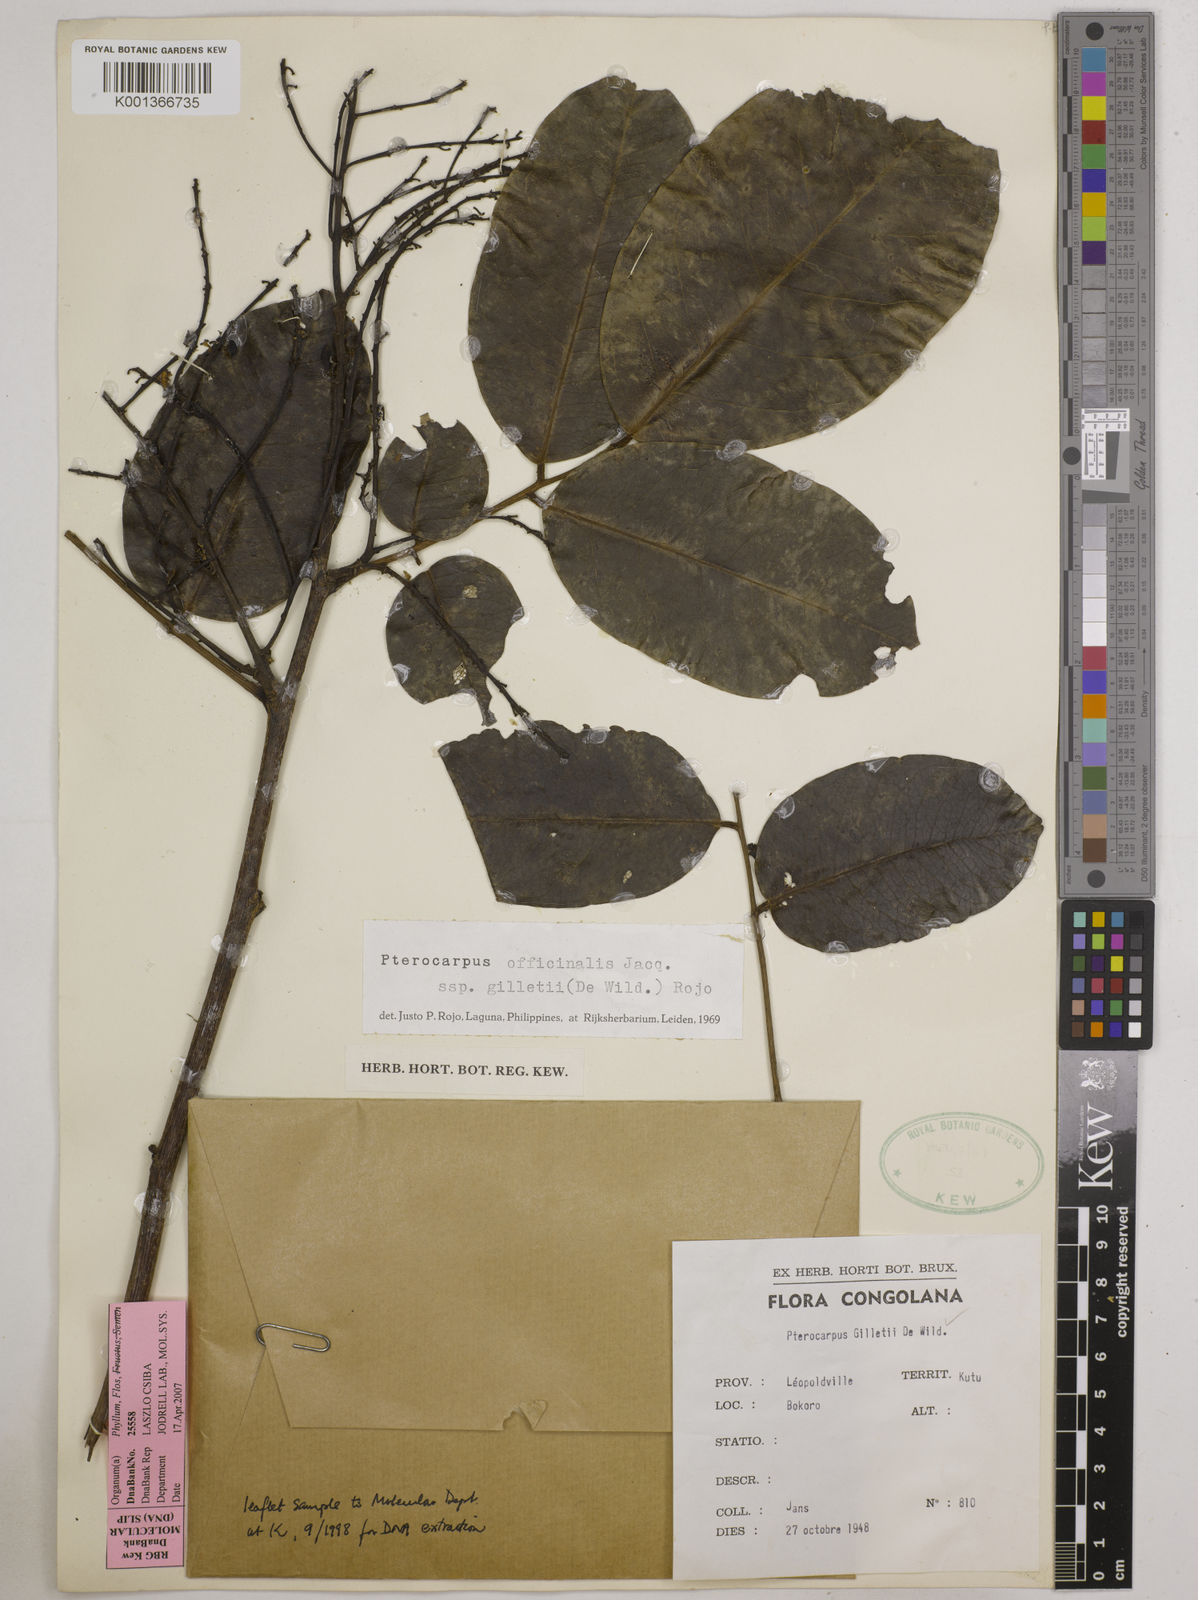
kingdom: Plantae
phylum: Tracheophyta
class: Magnoliopsida
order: Fabales
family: Fabaceae
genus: Pterocarpus
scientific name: Pterocarpus gilletii
